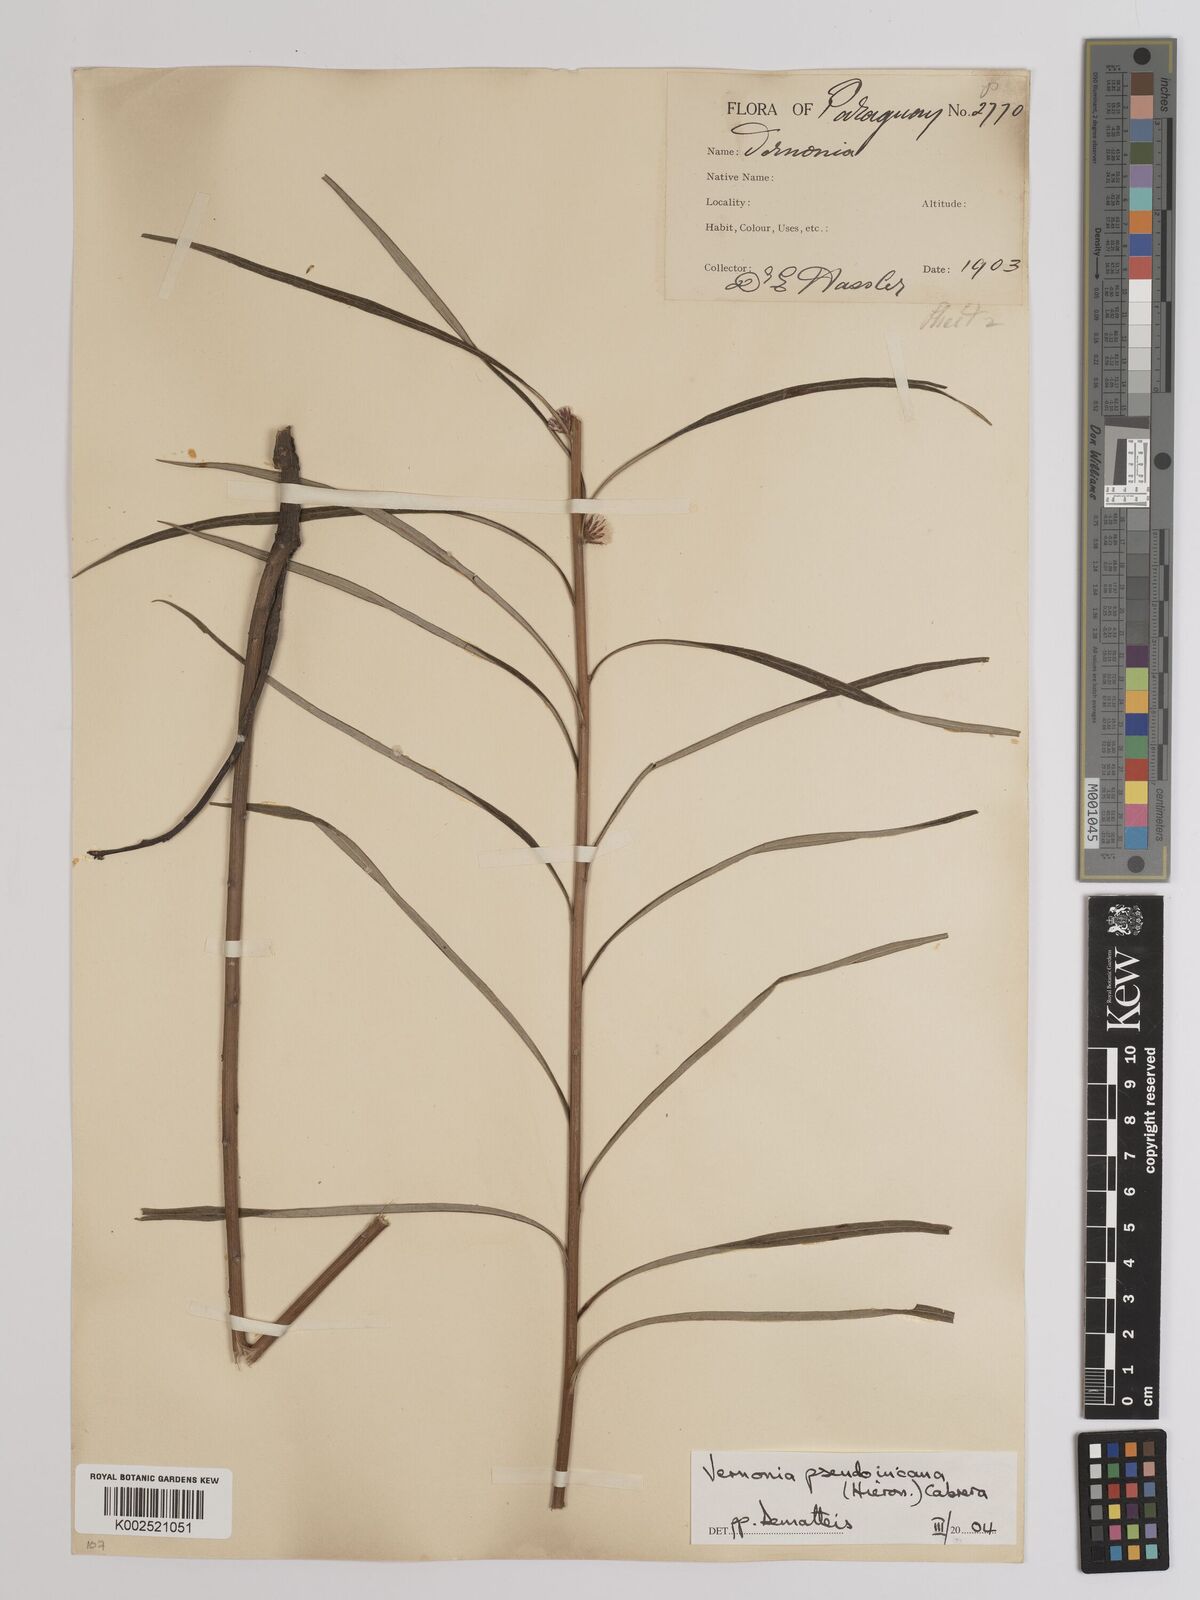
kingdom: Plantae
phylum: Tracheophyta
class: Magnoliopsida
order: Asterales
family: Asteraceae
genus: Lessingianthus
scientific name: Lessingianthus rubricaulis
